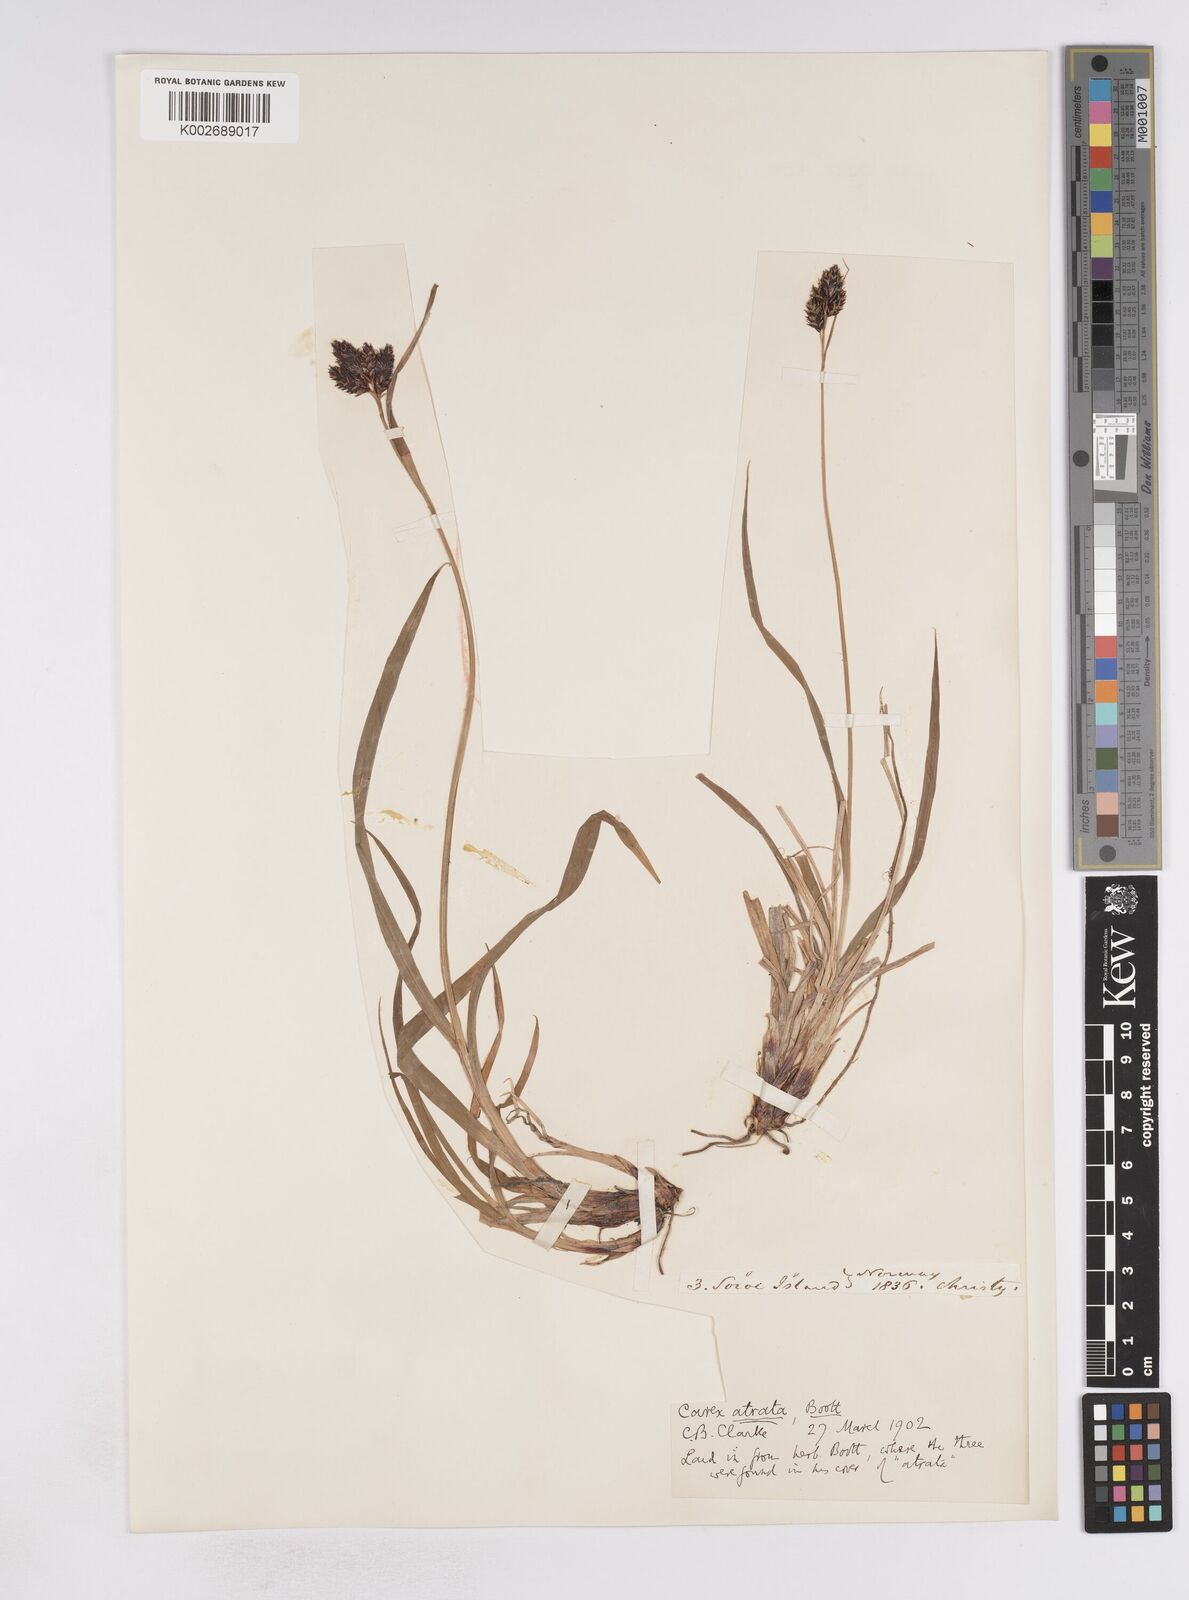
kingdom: Plantae
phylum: Tracheophyta
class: Liliopsida
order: Poales
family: Cyperaceae
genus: Carex
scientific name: Carex atrata
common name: Black alpine sedge
